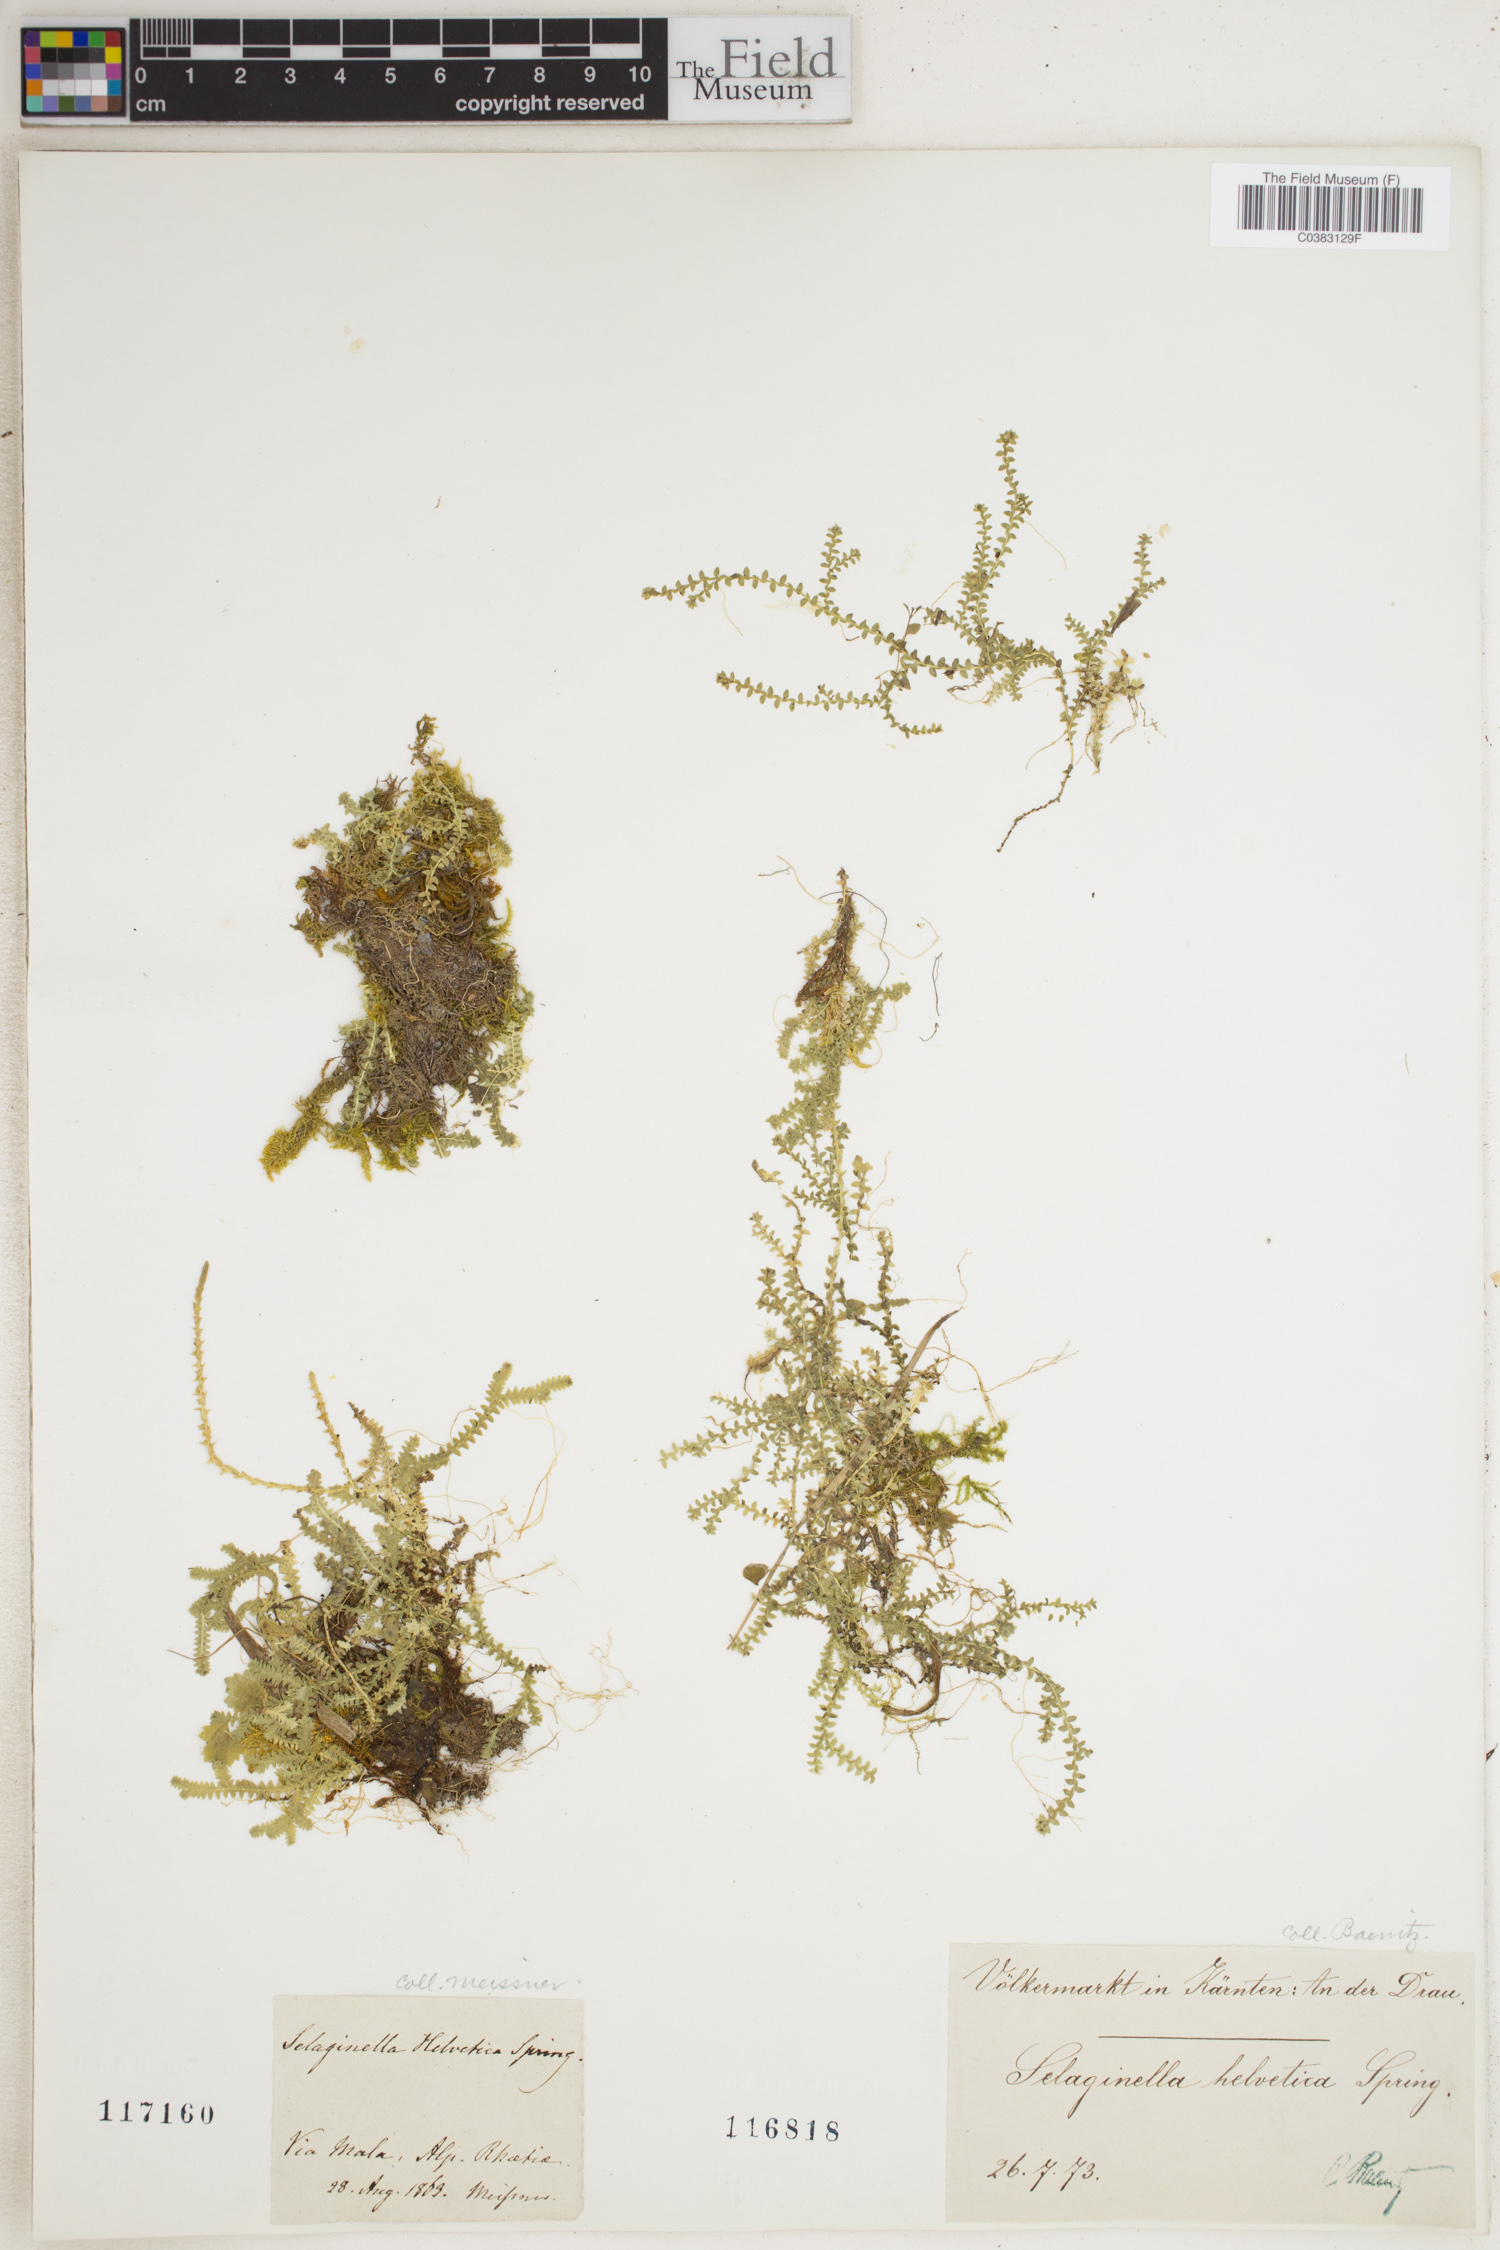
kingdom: Plantae
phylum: Tracheophyta
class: Lycopodiopsida
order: Selaginellales
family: Selaginellaceae
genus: Selaginella
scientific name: Selaginella helvetica
